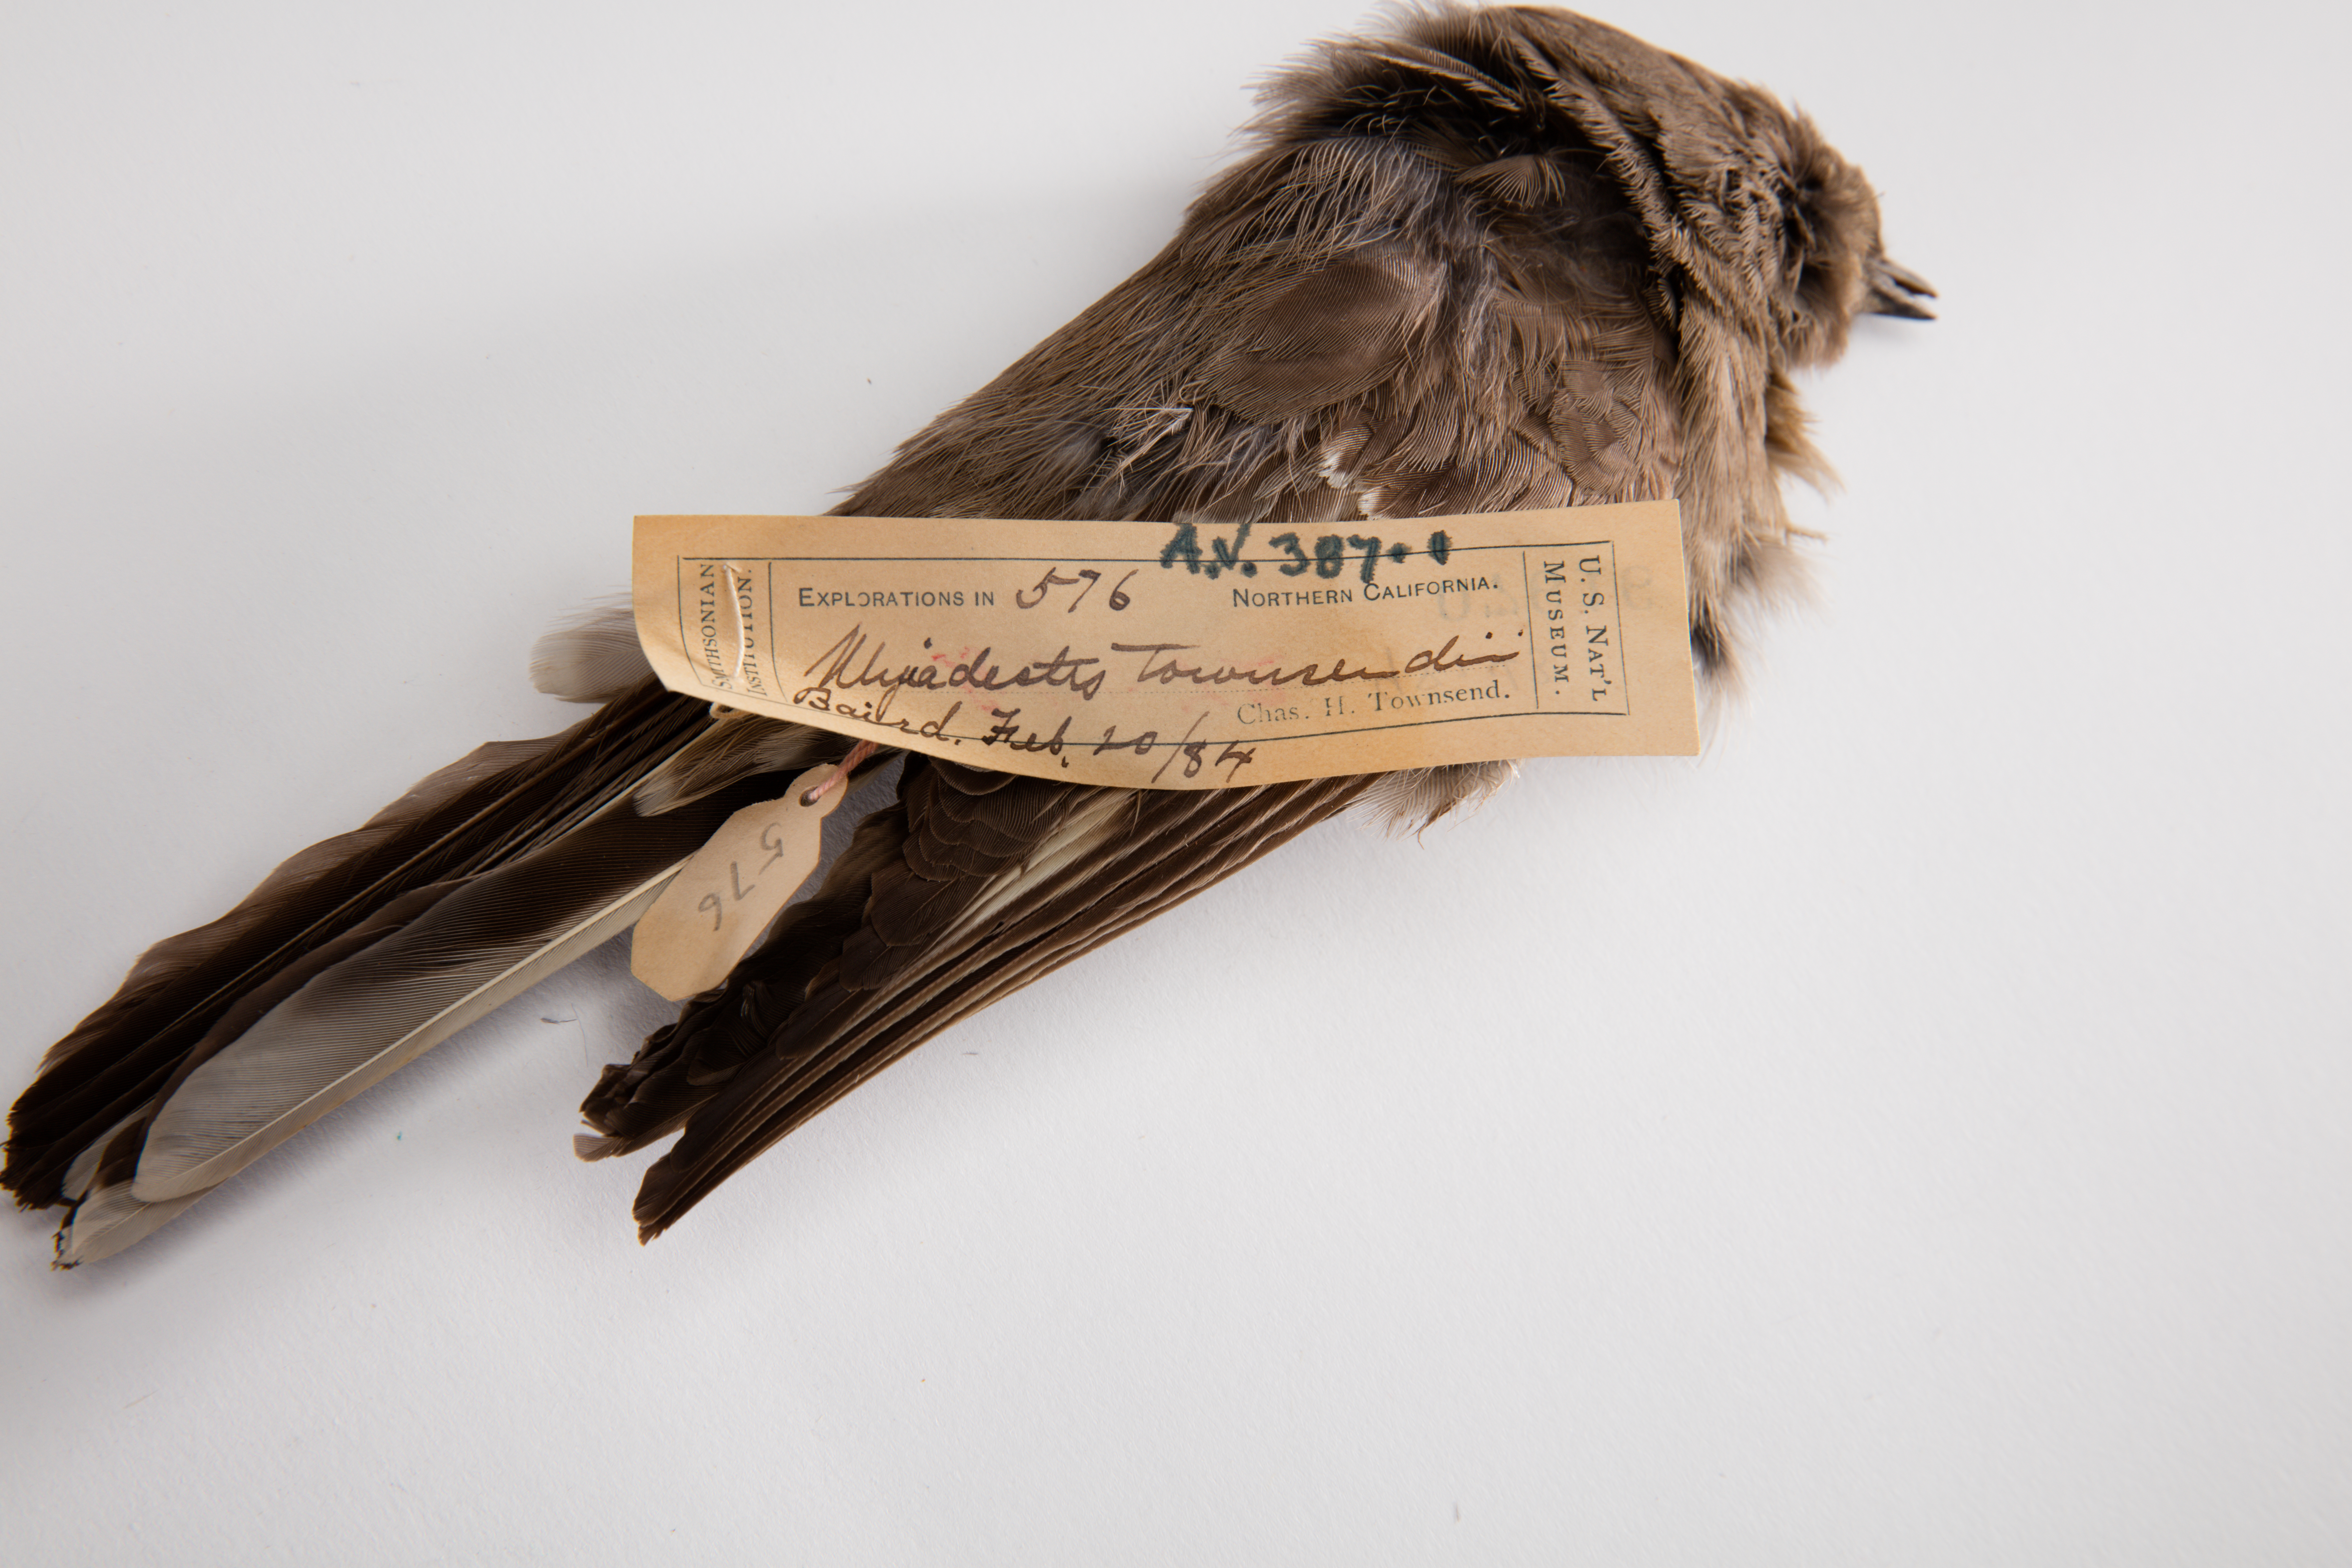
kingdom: Animalia
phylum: Chordata
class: Aves
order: Passeriformes
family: Turdidae
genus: Myadestes
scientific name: Myadestes townsendi
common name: Townsend's solitaire
